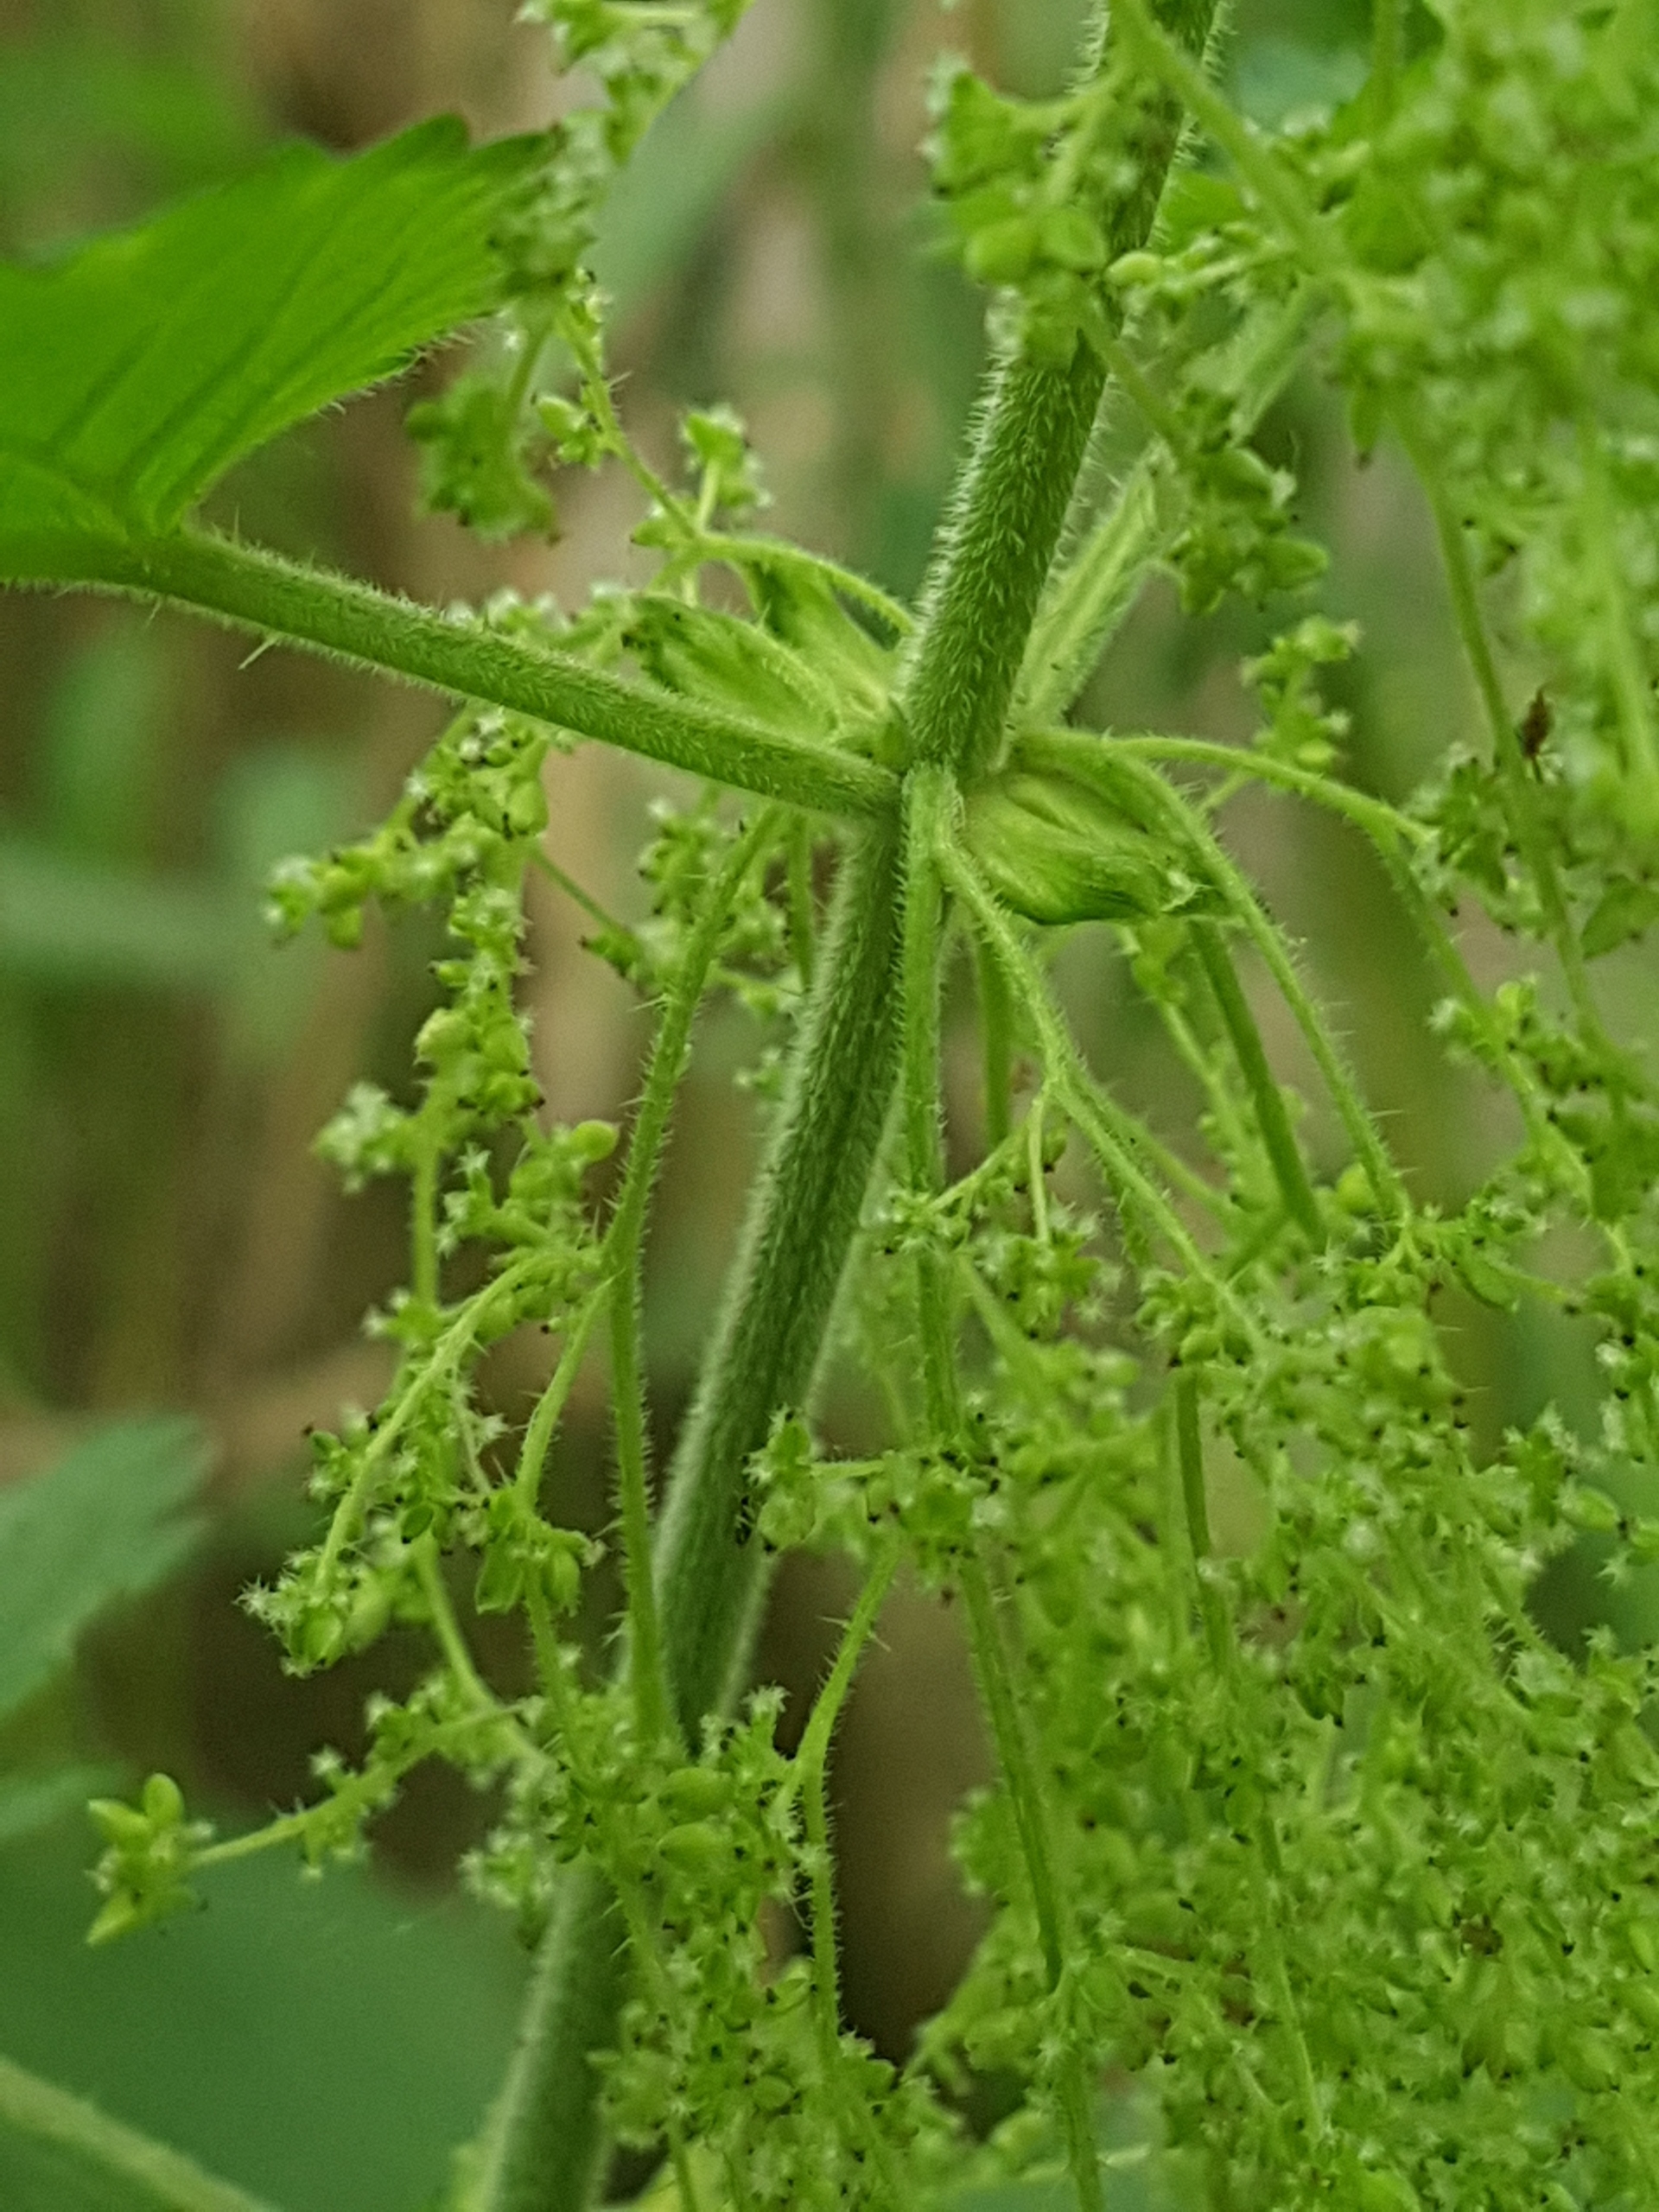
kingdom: Plantae
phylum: Tracheophyta
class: Magnoliopsida
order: Rosales
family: Urticaceae
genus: Urtica
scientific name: Urtica dioica
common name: Stor nælde
